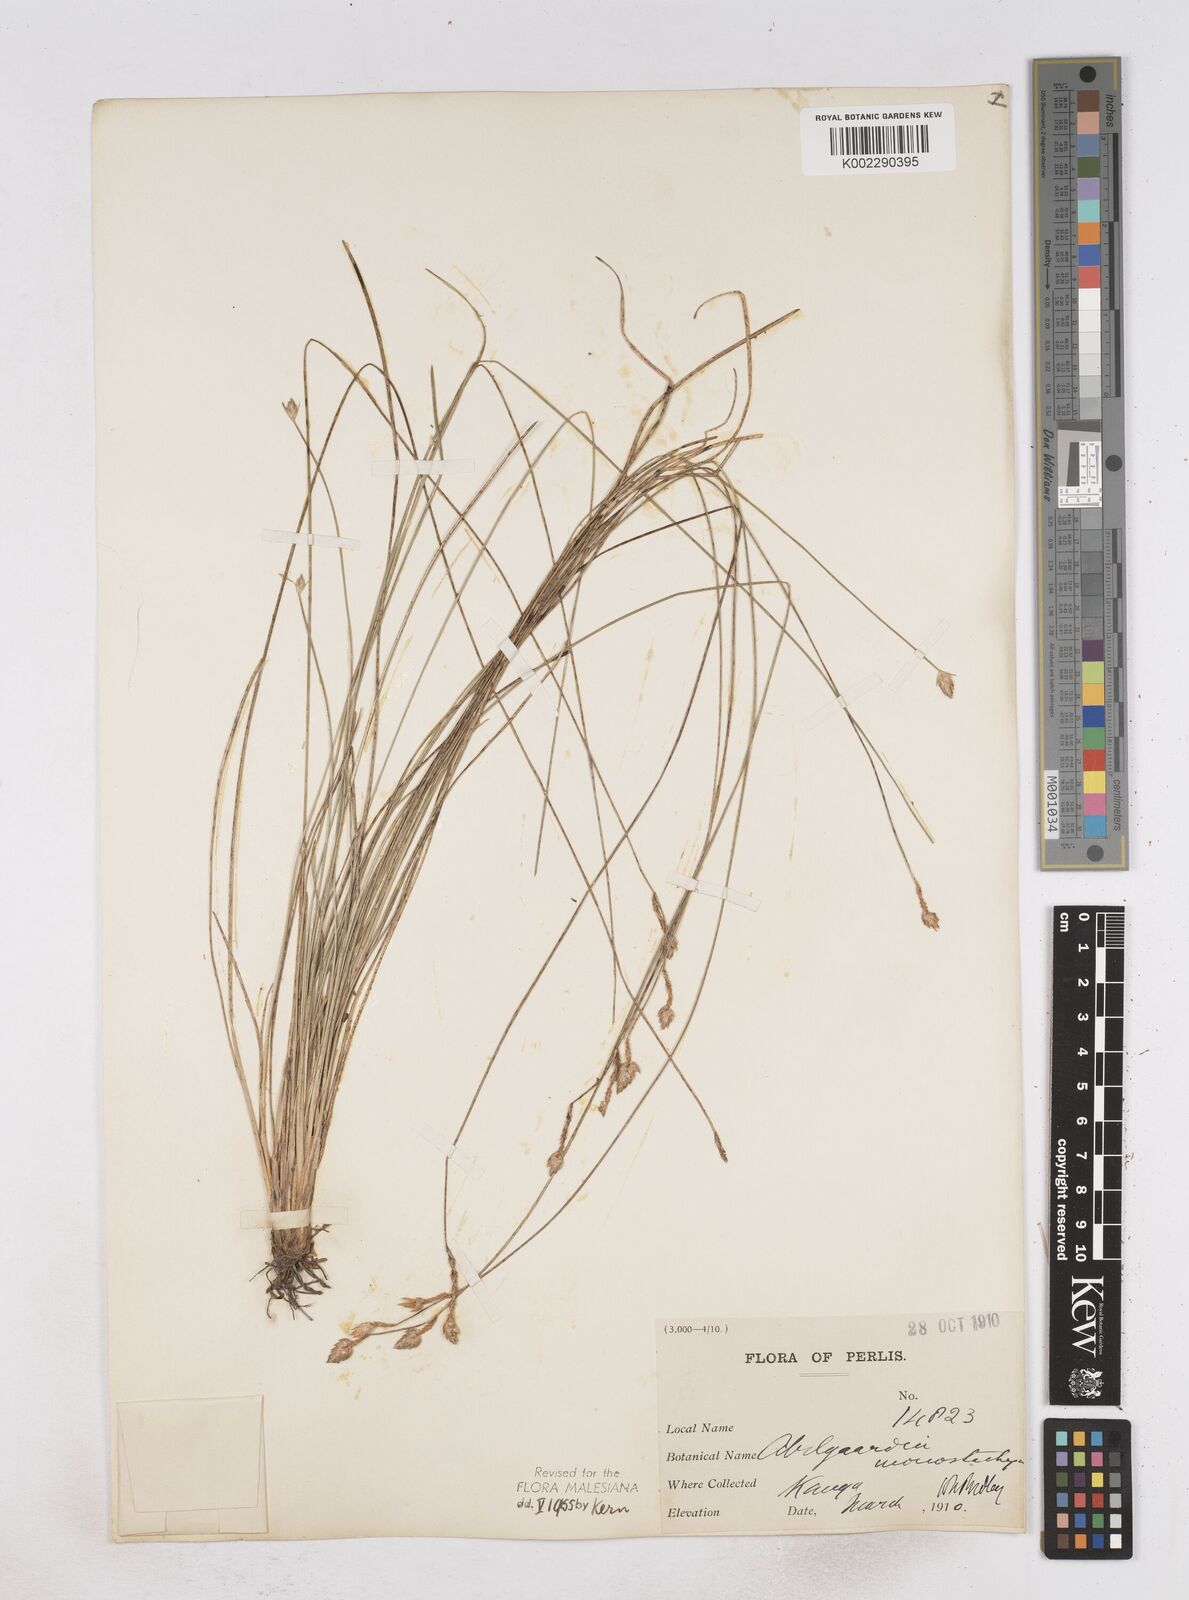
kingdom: Plantae
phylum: Tracheophyta
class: Liliopsida
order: Poales
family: Cyperaceae
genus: Abildgaardia
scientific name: Abildgaardia ovata
